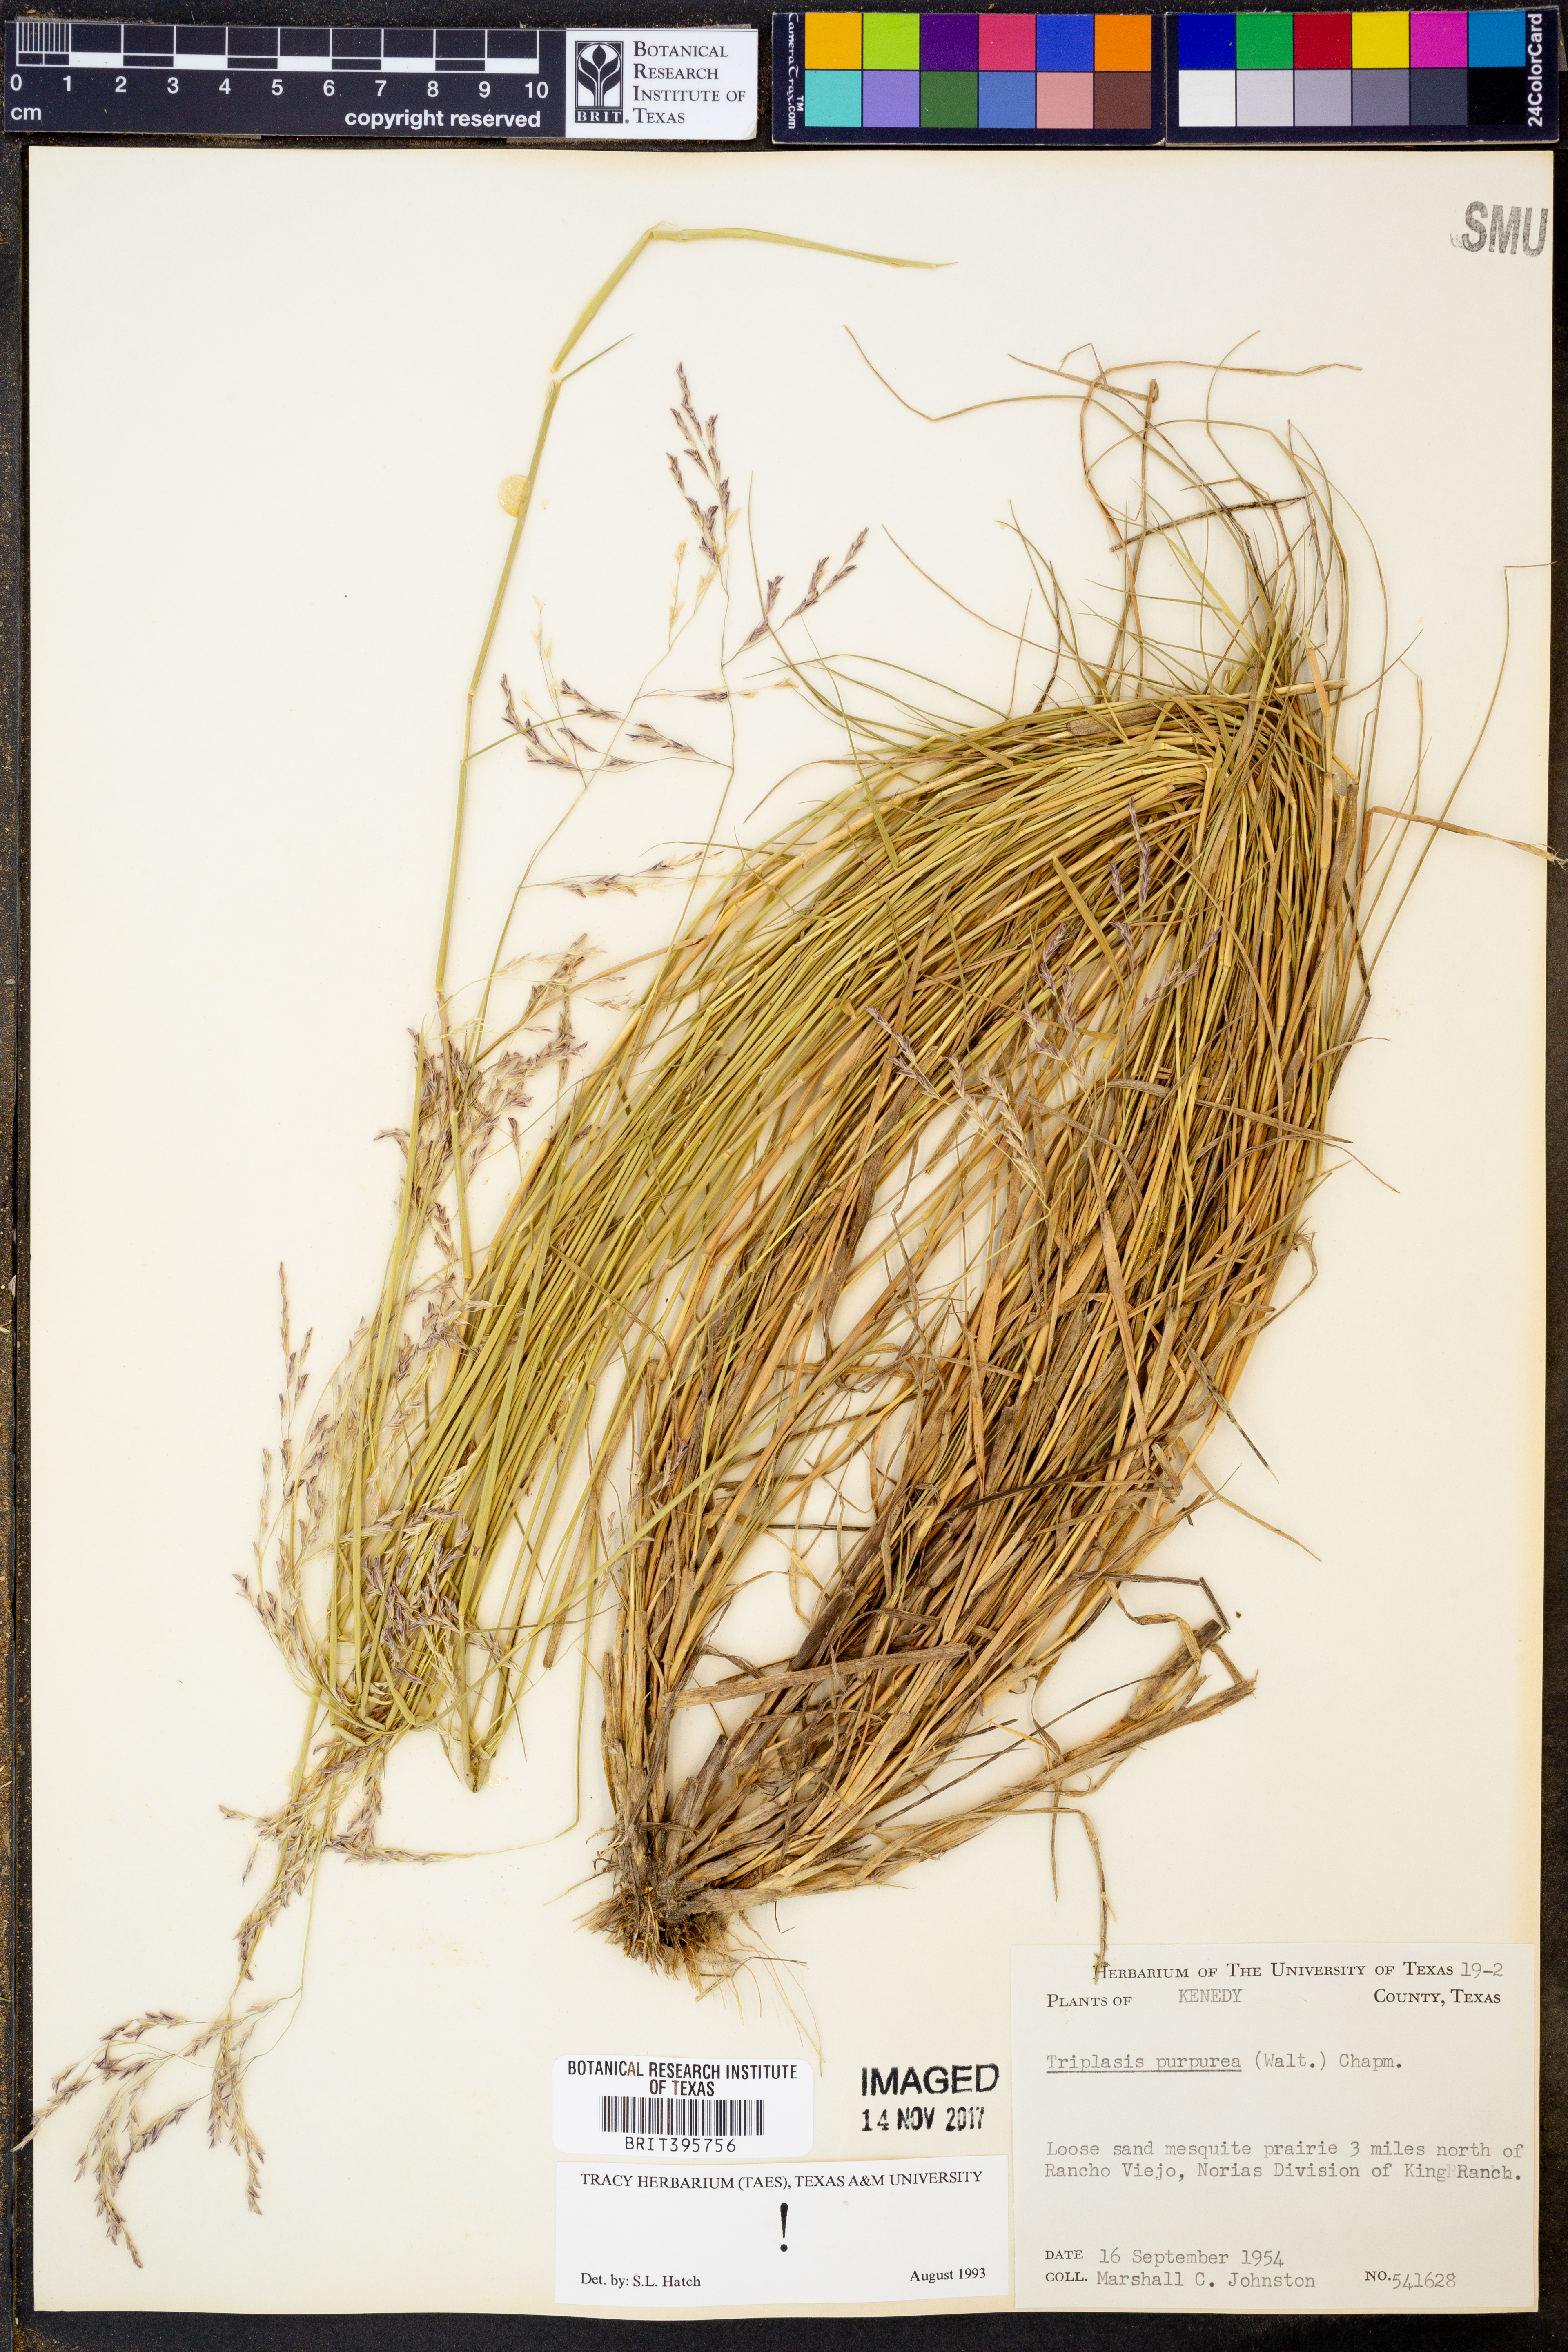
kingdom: Plantae
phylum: Tracheophyta
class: Liliopsida
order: Poales
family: Poaceae
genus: Triplasis
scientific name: Triplasis purpurea
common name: Purple sand grass
